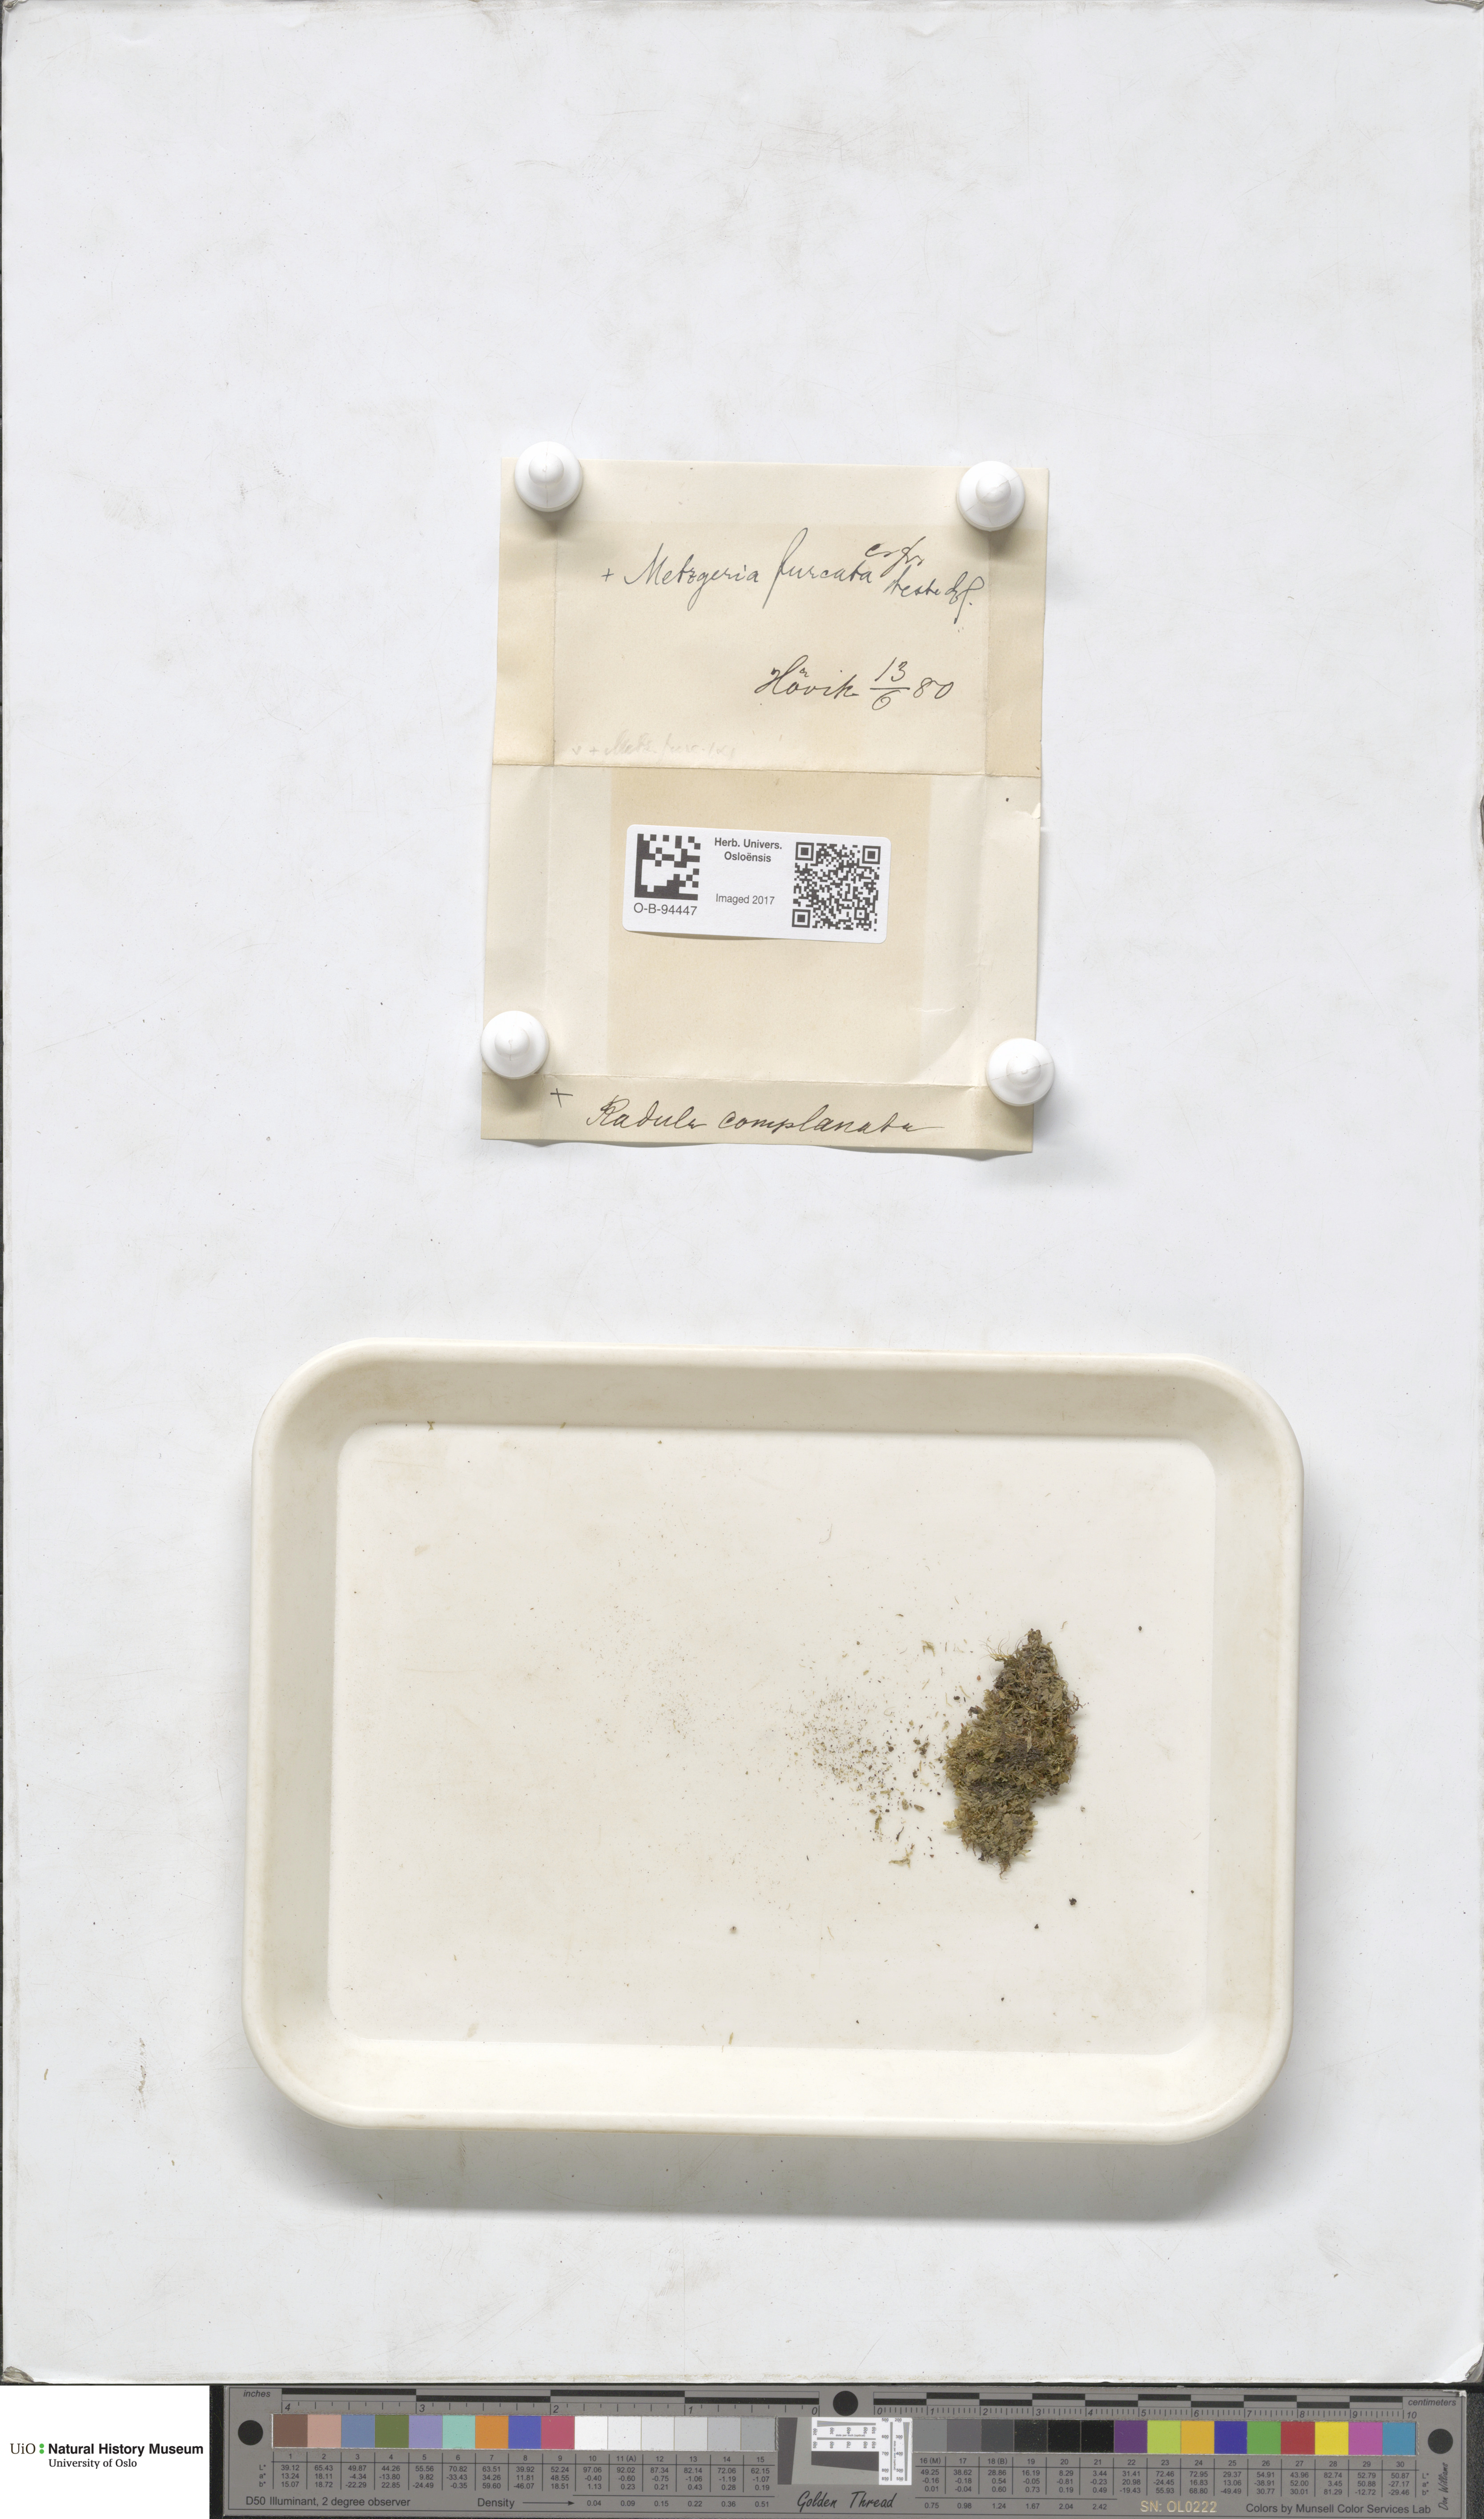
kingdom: Plantae
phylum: Marchantiophyta
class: Jungermanniopsida
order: Metzgeriales
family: Metzgeriaceae
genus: Metzgeria
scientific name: Metzgeria furcata
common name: Forked veilwort
